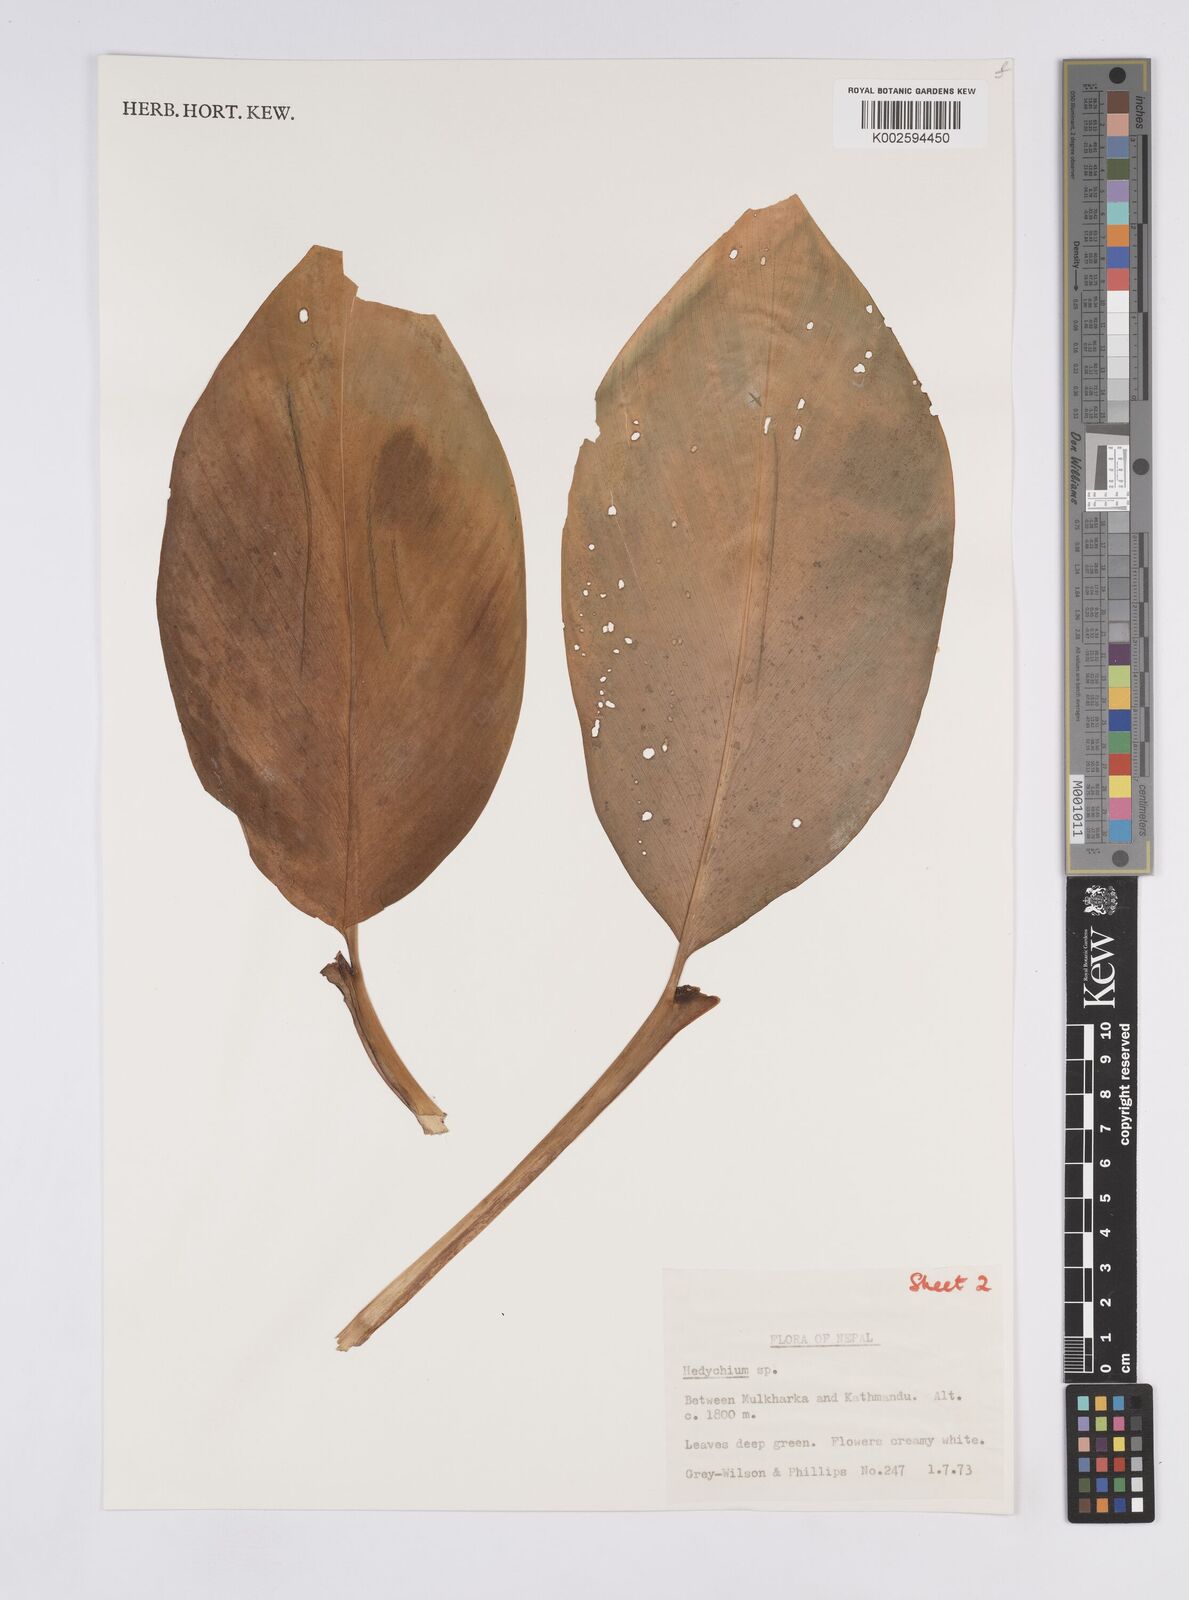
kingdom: Plantae
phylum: Tracheophyta
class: Liliopsida
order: Zingiberales
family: Zingiberaceae
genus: Hedychium
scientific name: Hedychium ellipticum
